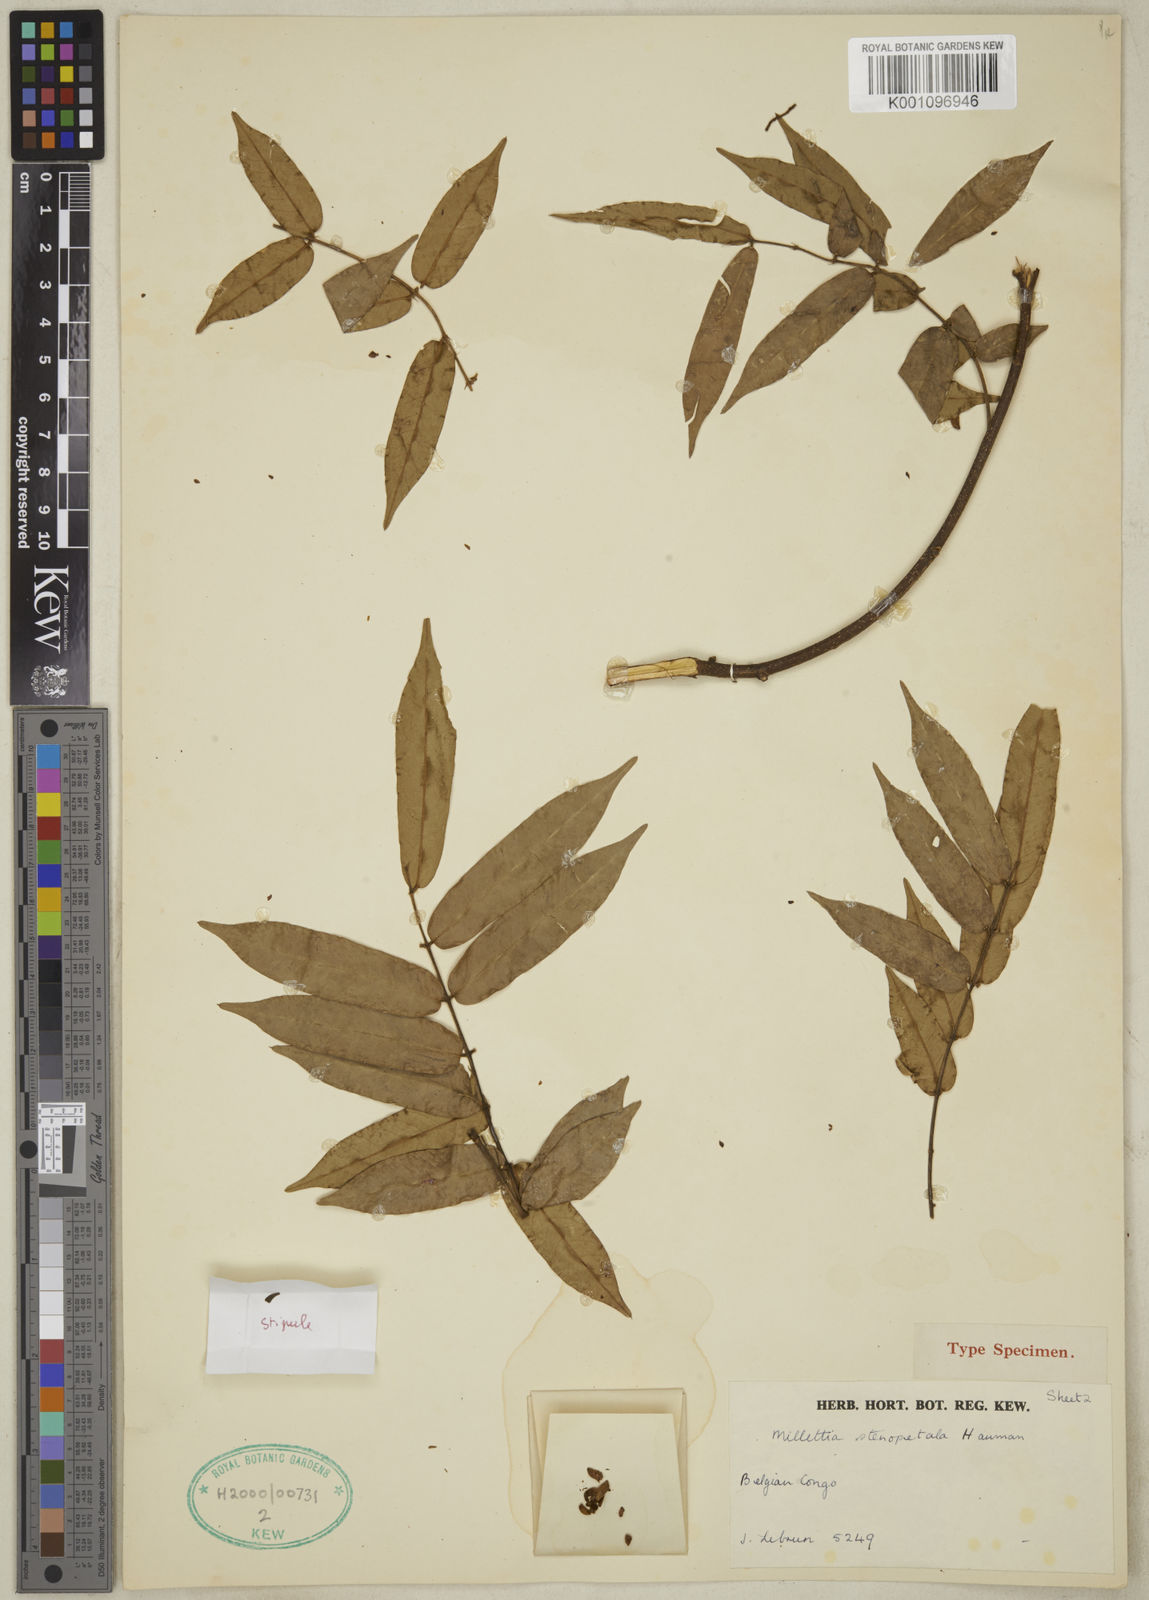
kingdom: Plantae
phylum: Tracheophyta
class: Magnoliopsida
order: Fabales
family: Fabaceae
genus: Millettia
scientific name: Millettia stenopetala
